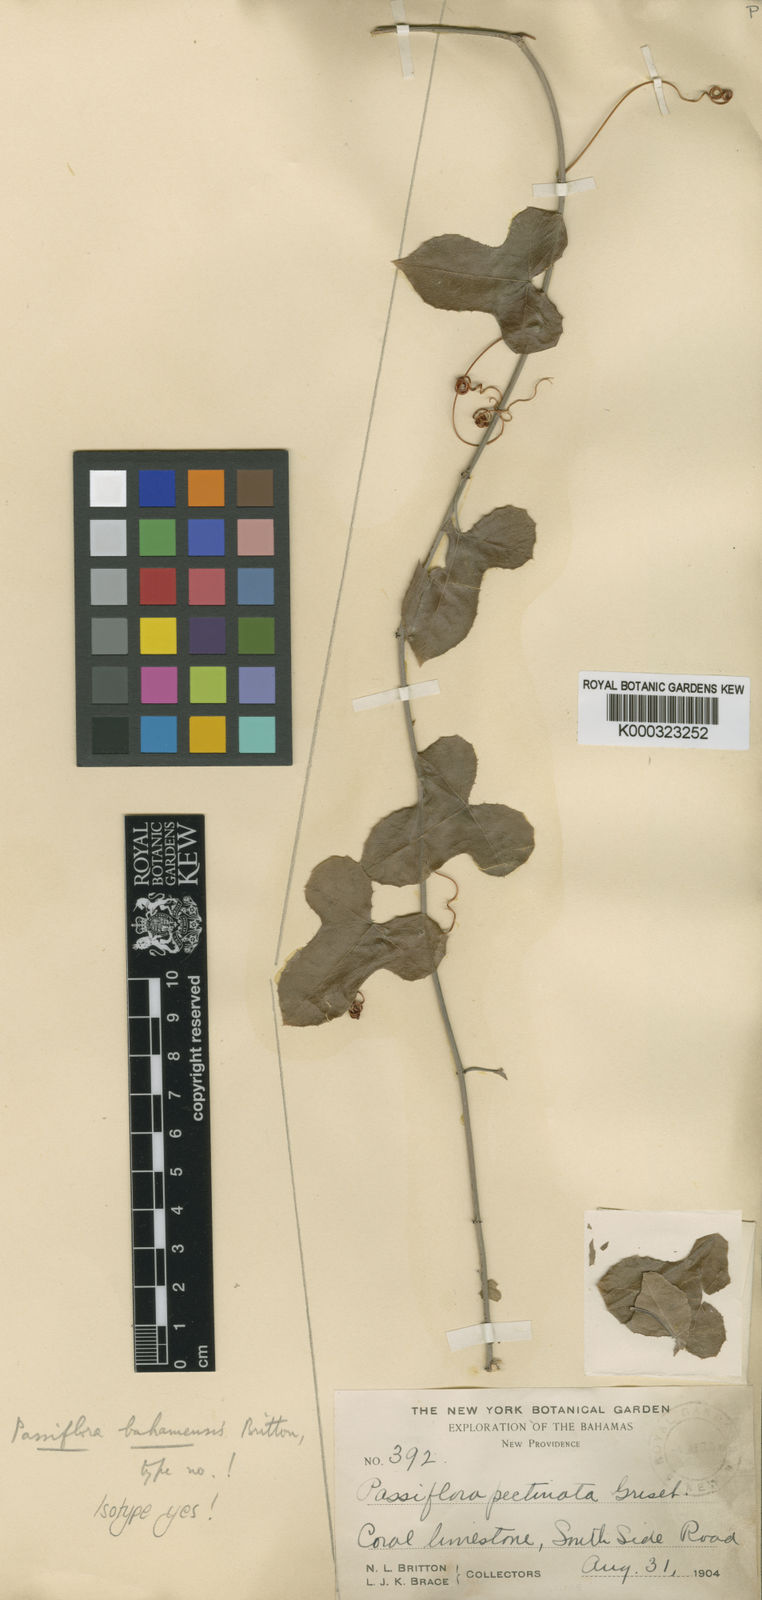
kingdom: Plantae
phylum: Tracheophyta
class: Magnoliopsida
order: Malpighiales
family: Passifloraceae
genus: Passiflora
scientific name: Passiflora bahamensis
